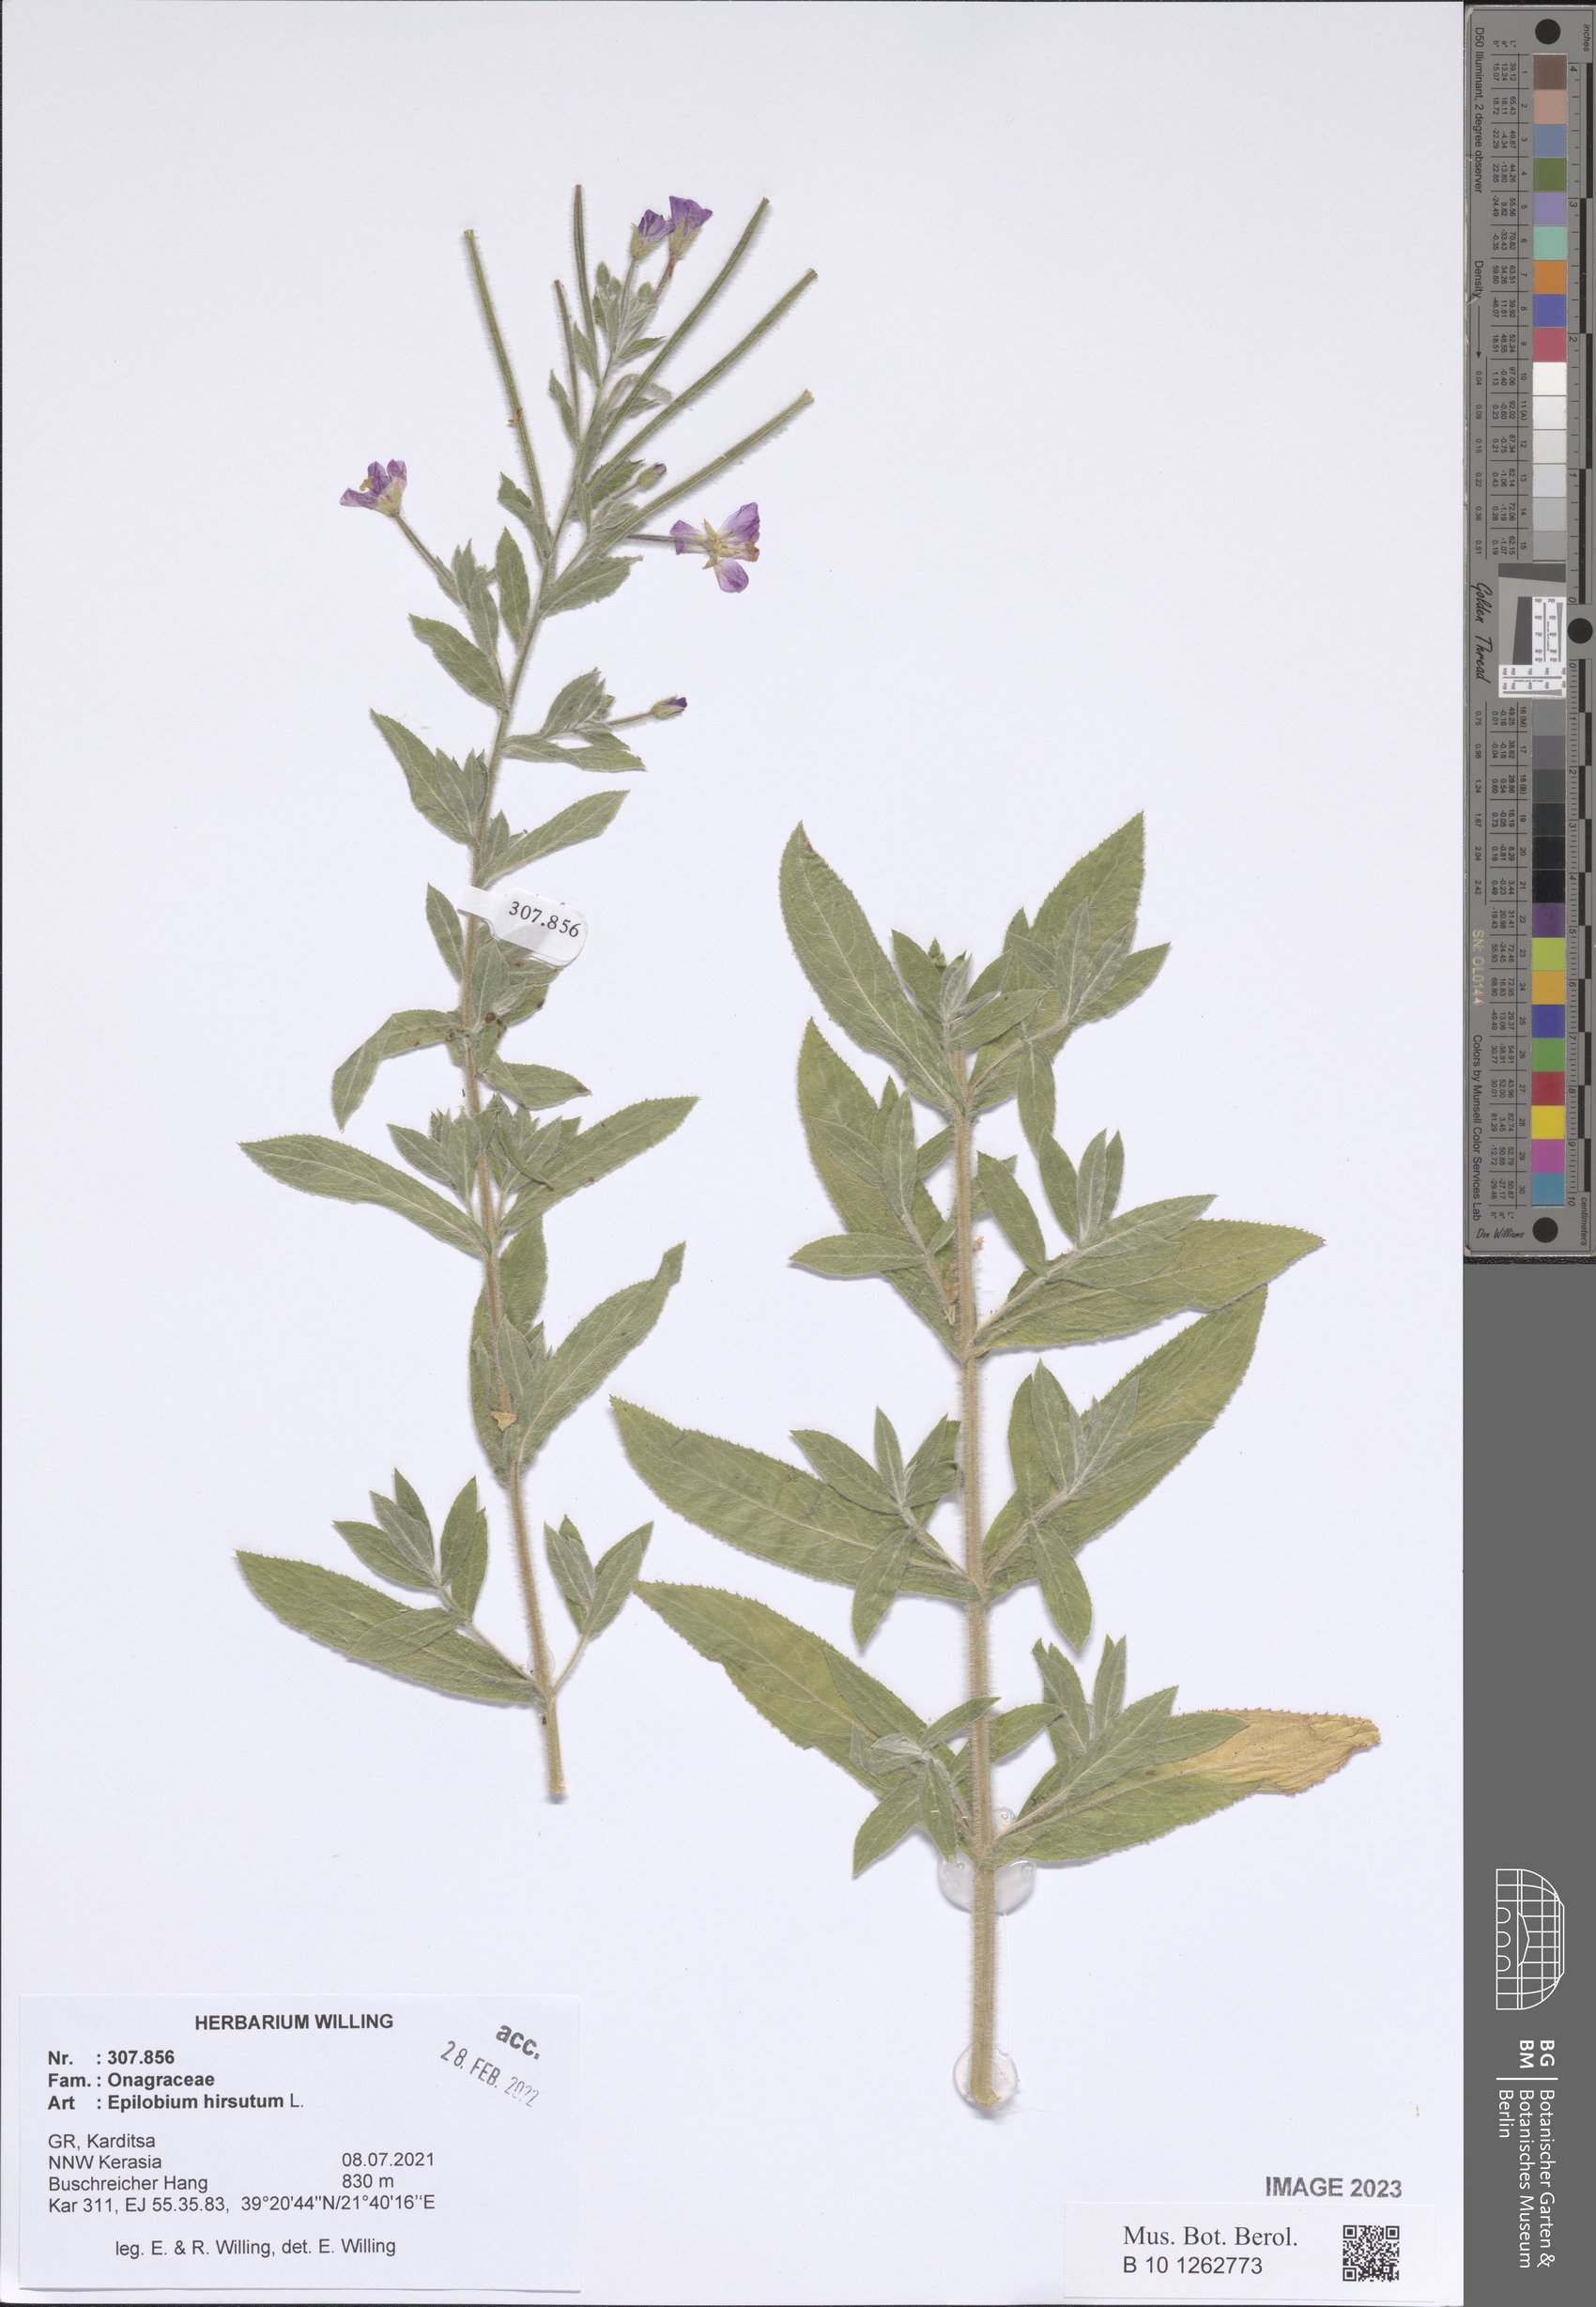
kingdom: Plantae
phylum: Tracheophyta
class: Magnoliopsida
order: Myrtales
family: Onagraceae
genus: Epilobium
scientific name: Epilobium hirsutum
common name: Great willowherb
